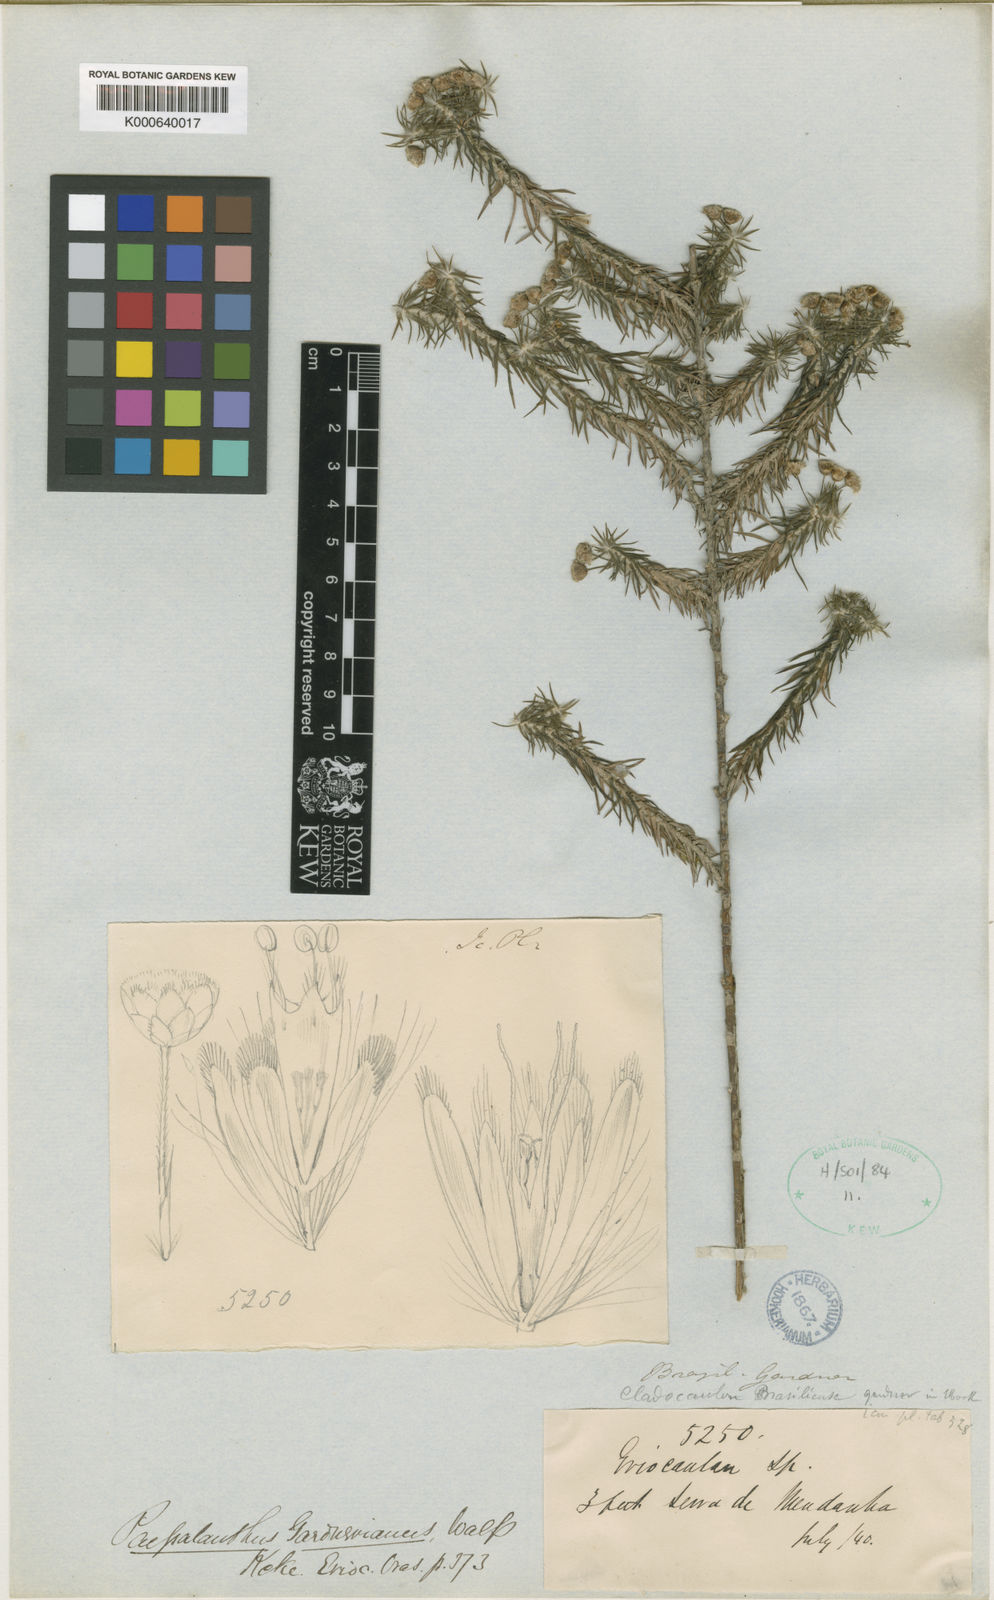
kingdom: Plantae
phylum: Tracheophyta
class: Liliopsida
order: Poales
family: Eriocaulaceae
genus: Paepalanthus
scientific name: Paepalanthus gardnerianus
